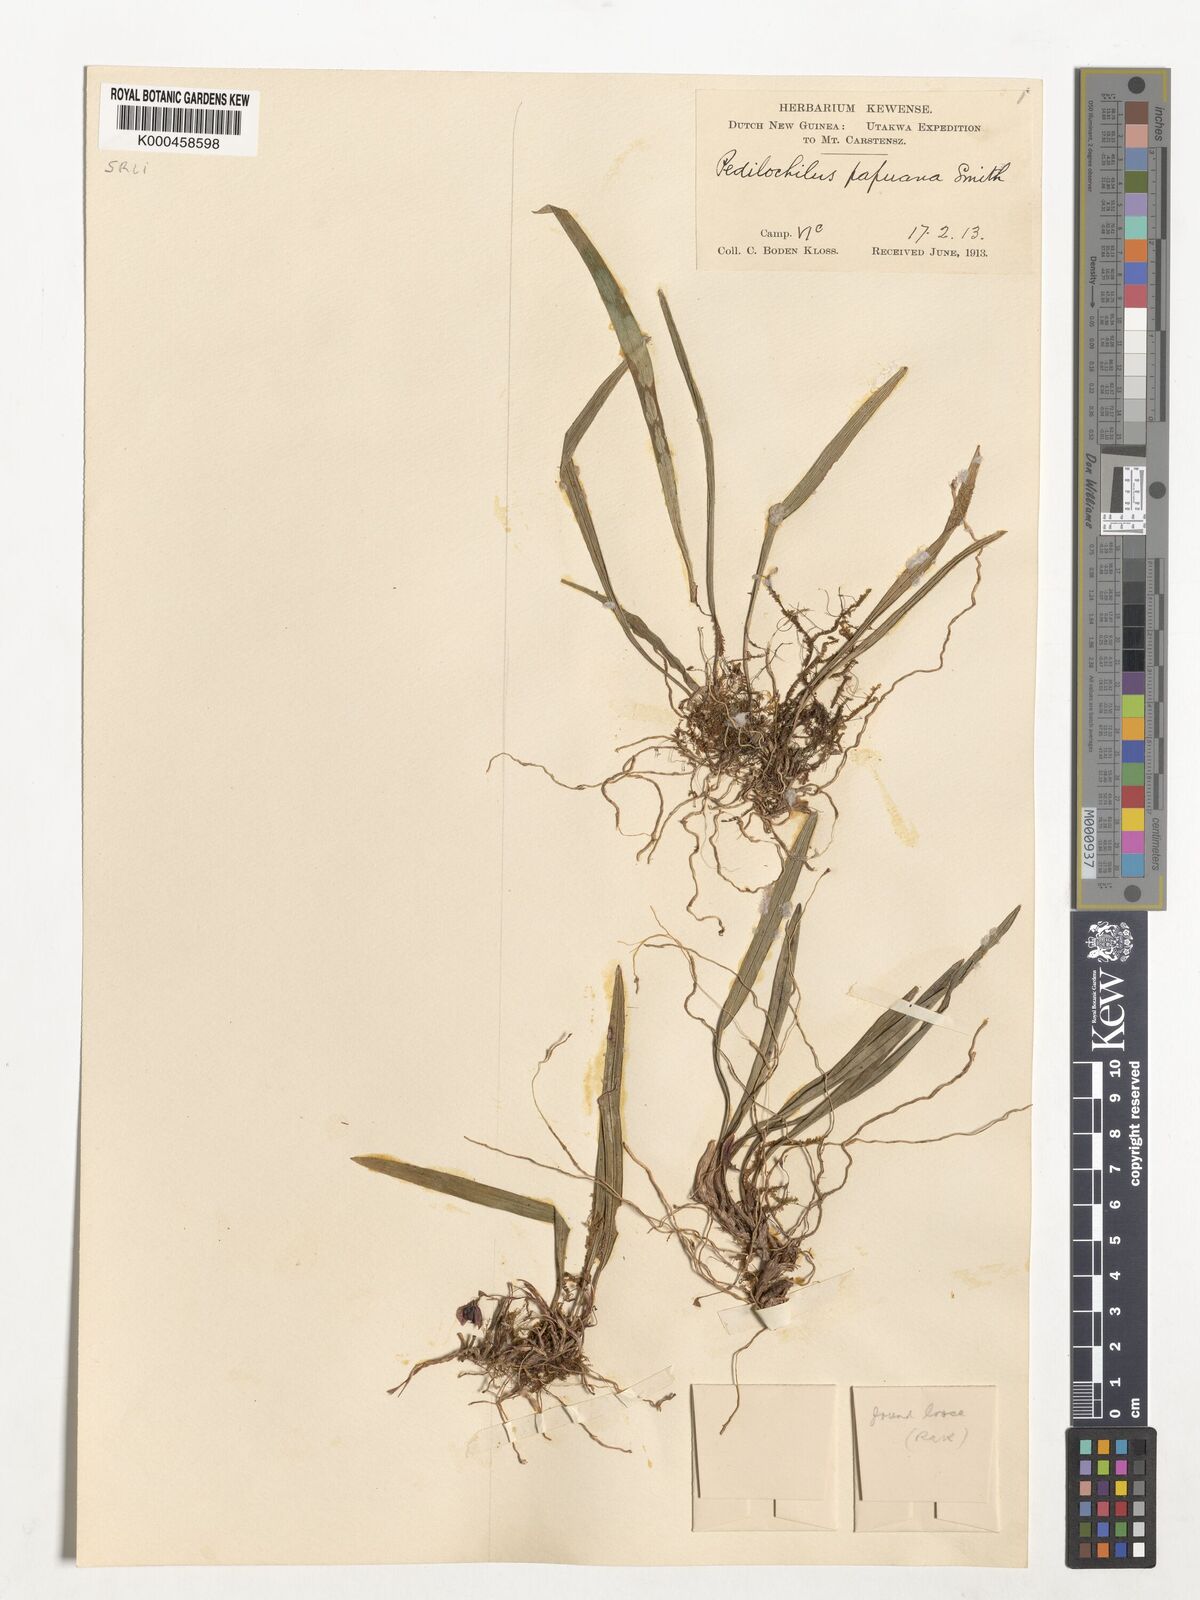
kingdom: Plantae
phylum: Tracheophyta
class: Liliopsida
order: Asparagales
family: Orchidaceae
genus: Bulbophyllum
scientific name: Bulbophyllum papuanum
